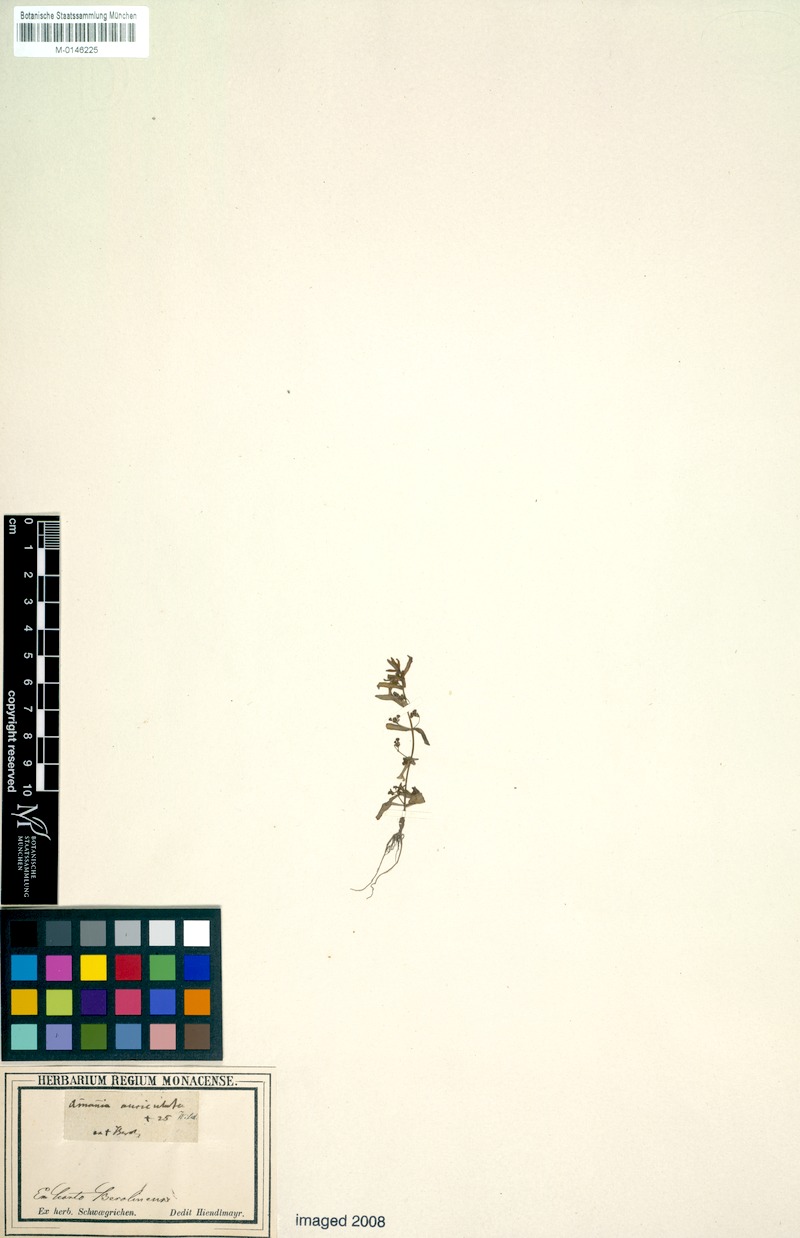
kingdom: Plantae
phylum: Tracheophyta
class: Magnoliopsida
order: Myrtales
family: Lythraceae
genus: Ammannia
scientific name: Ammannia auriculata
